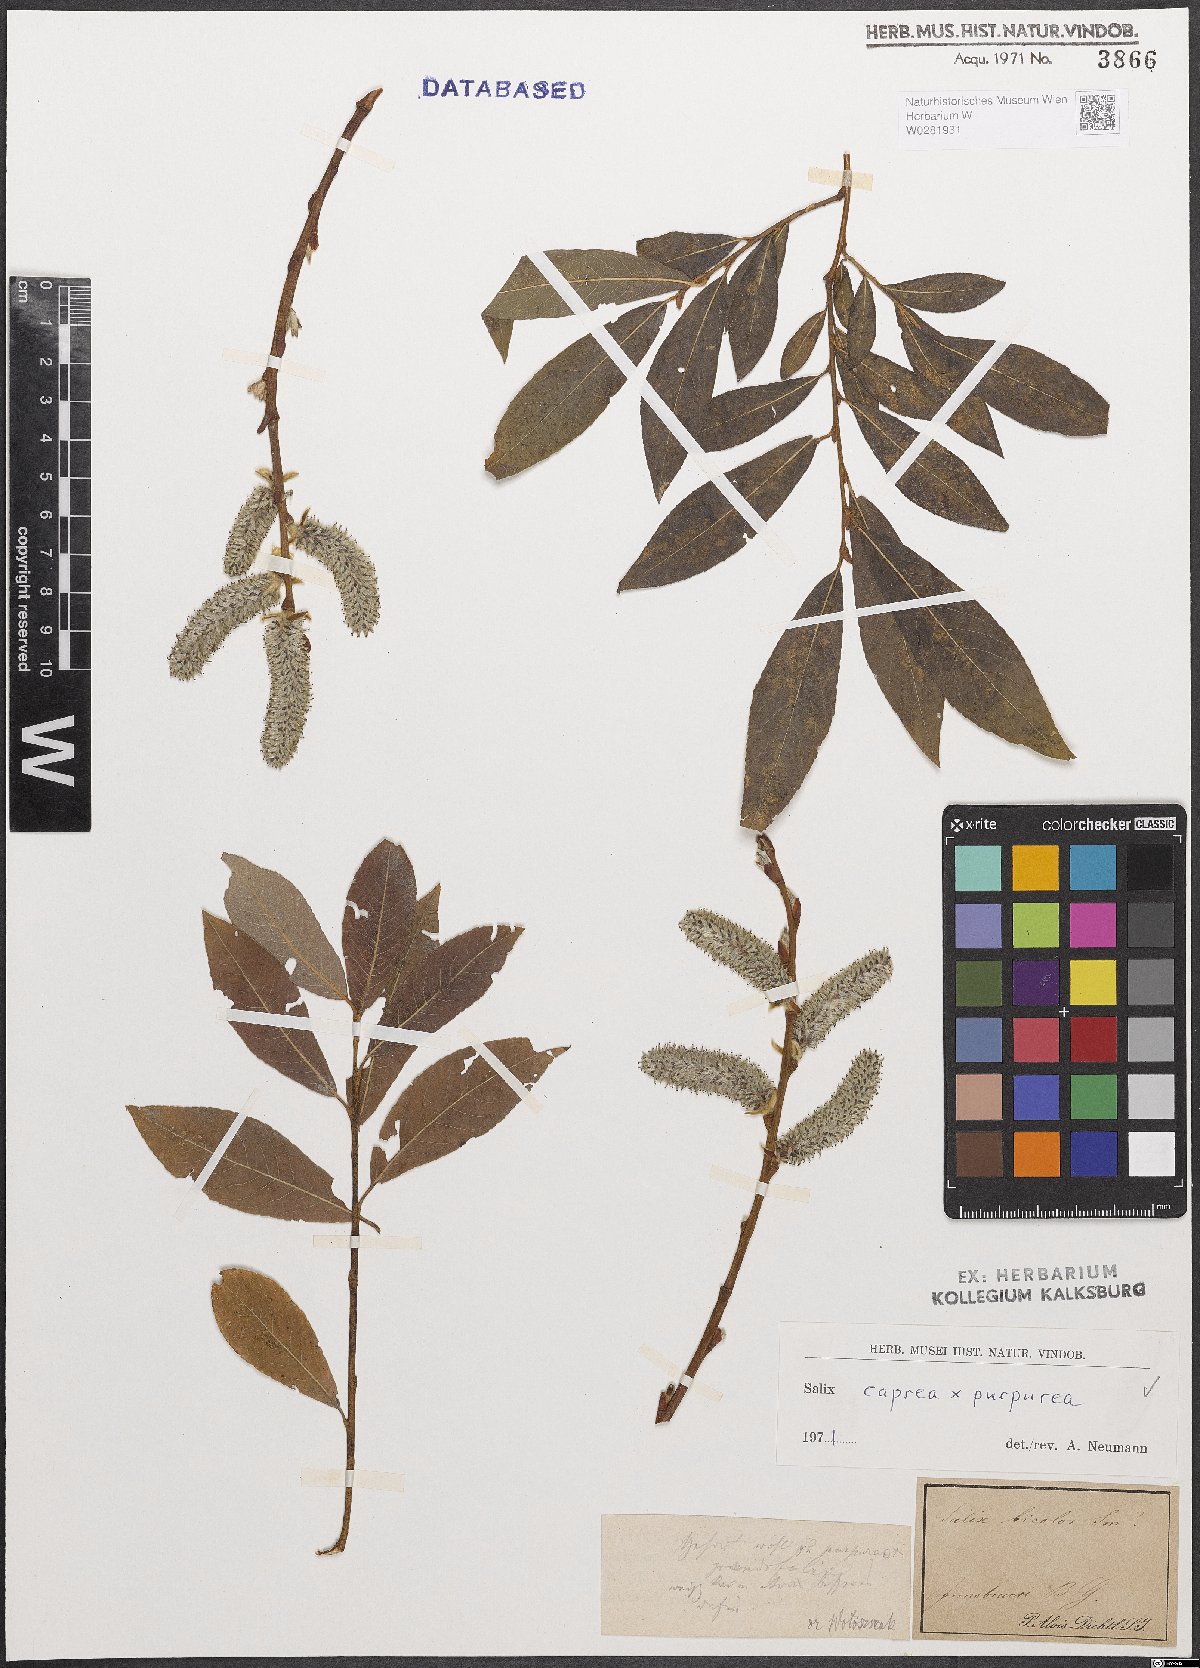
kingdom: Plantae
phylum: Tracheophyta
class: Magnoliopsida
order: Malpighiales
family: Salicaceae
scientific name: Salicaceae
